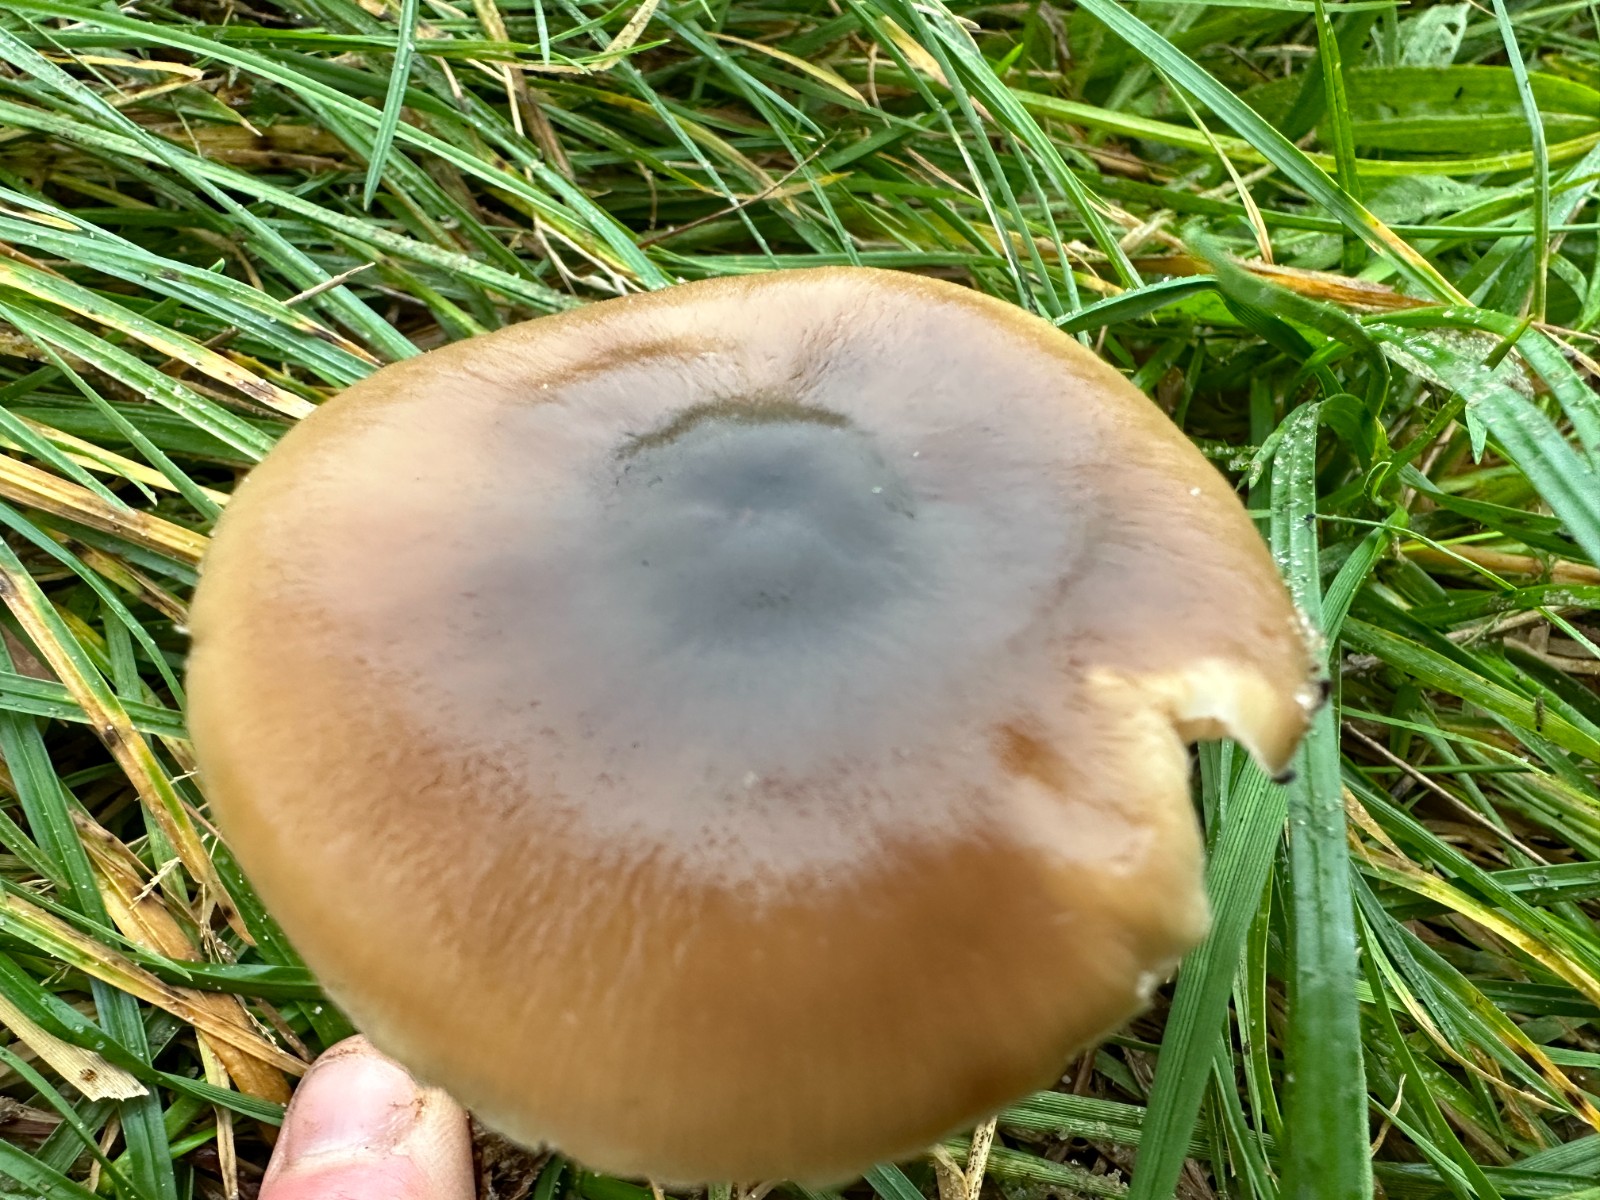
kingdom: Fungi
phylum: Basidiomycota
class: Agaricomycetes
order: Agaricales
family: Omphalotaceae
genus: Rhodocollybia
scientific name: Rhodocollybia
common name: fladhat
